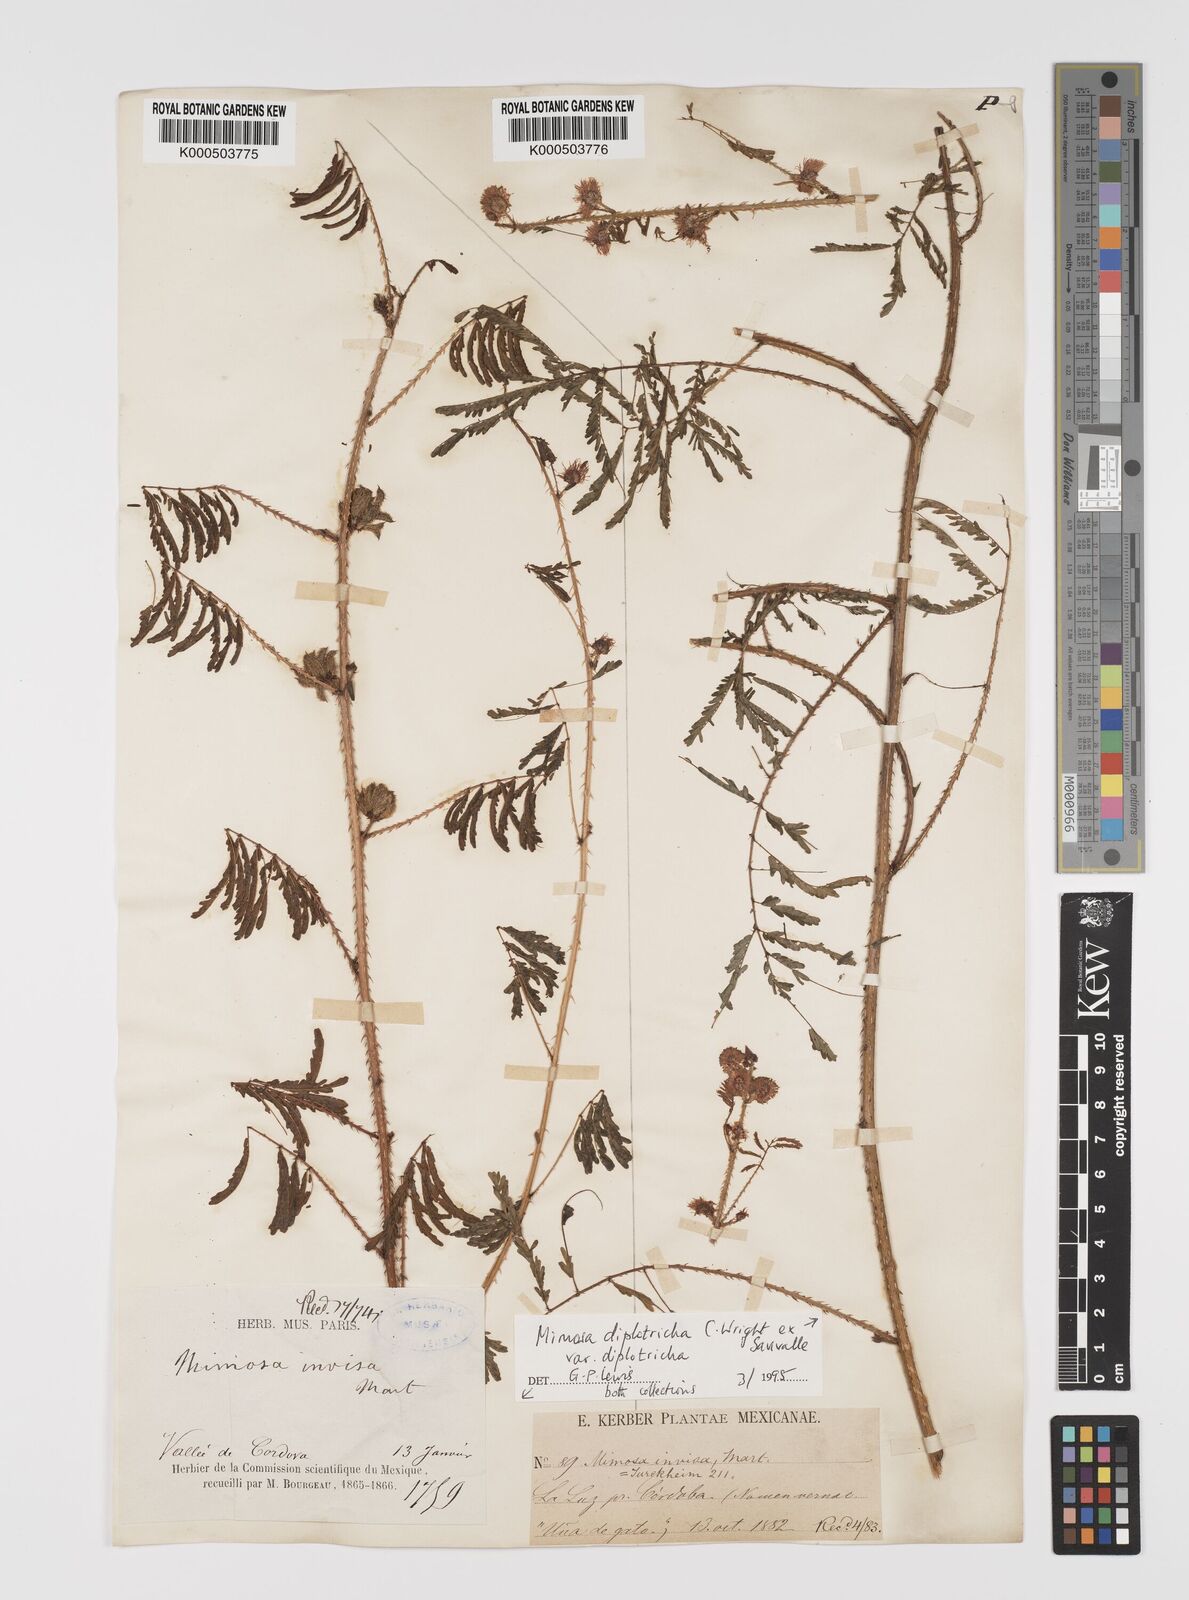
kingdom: Plantae
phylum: Tracheophyta
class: Magnoliopsida
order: Fabales
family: Fabaceae
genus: Mimosa
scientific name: Mimosa diplotricha
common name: Giant sensitive-plant
